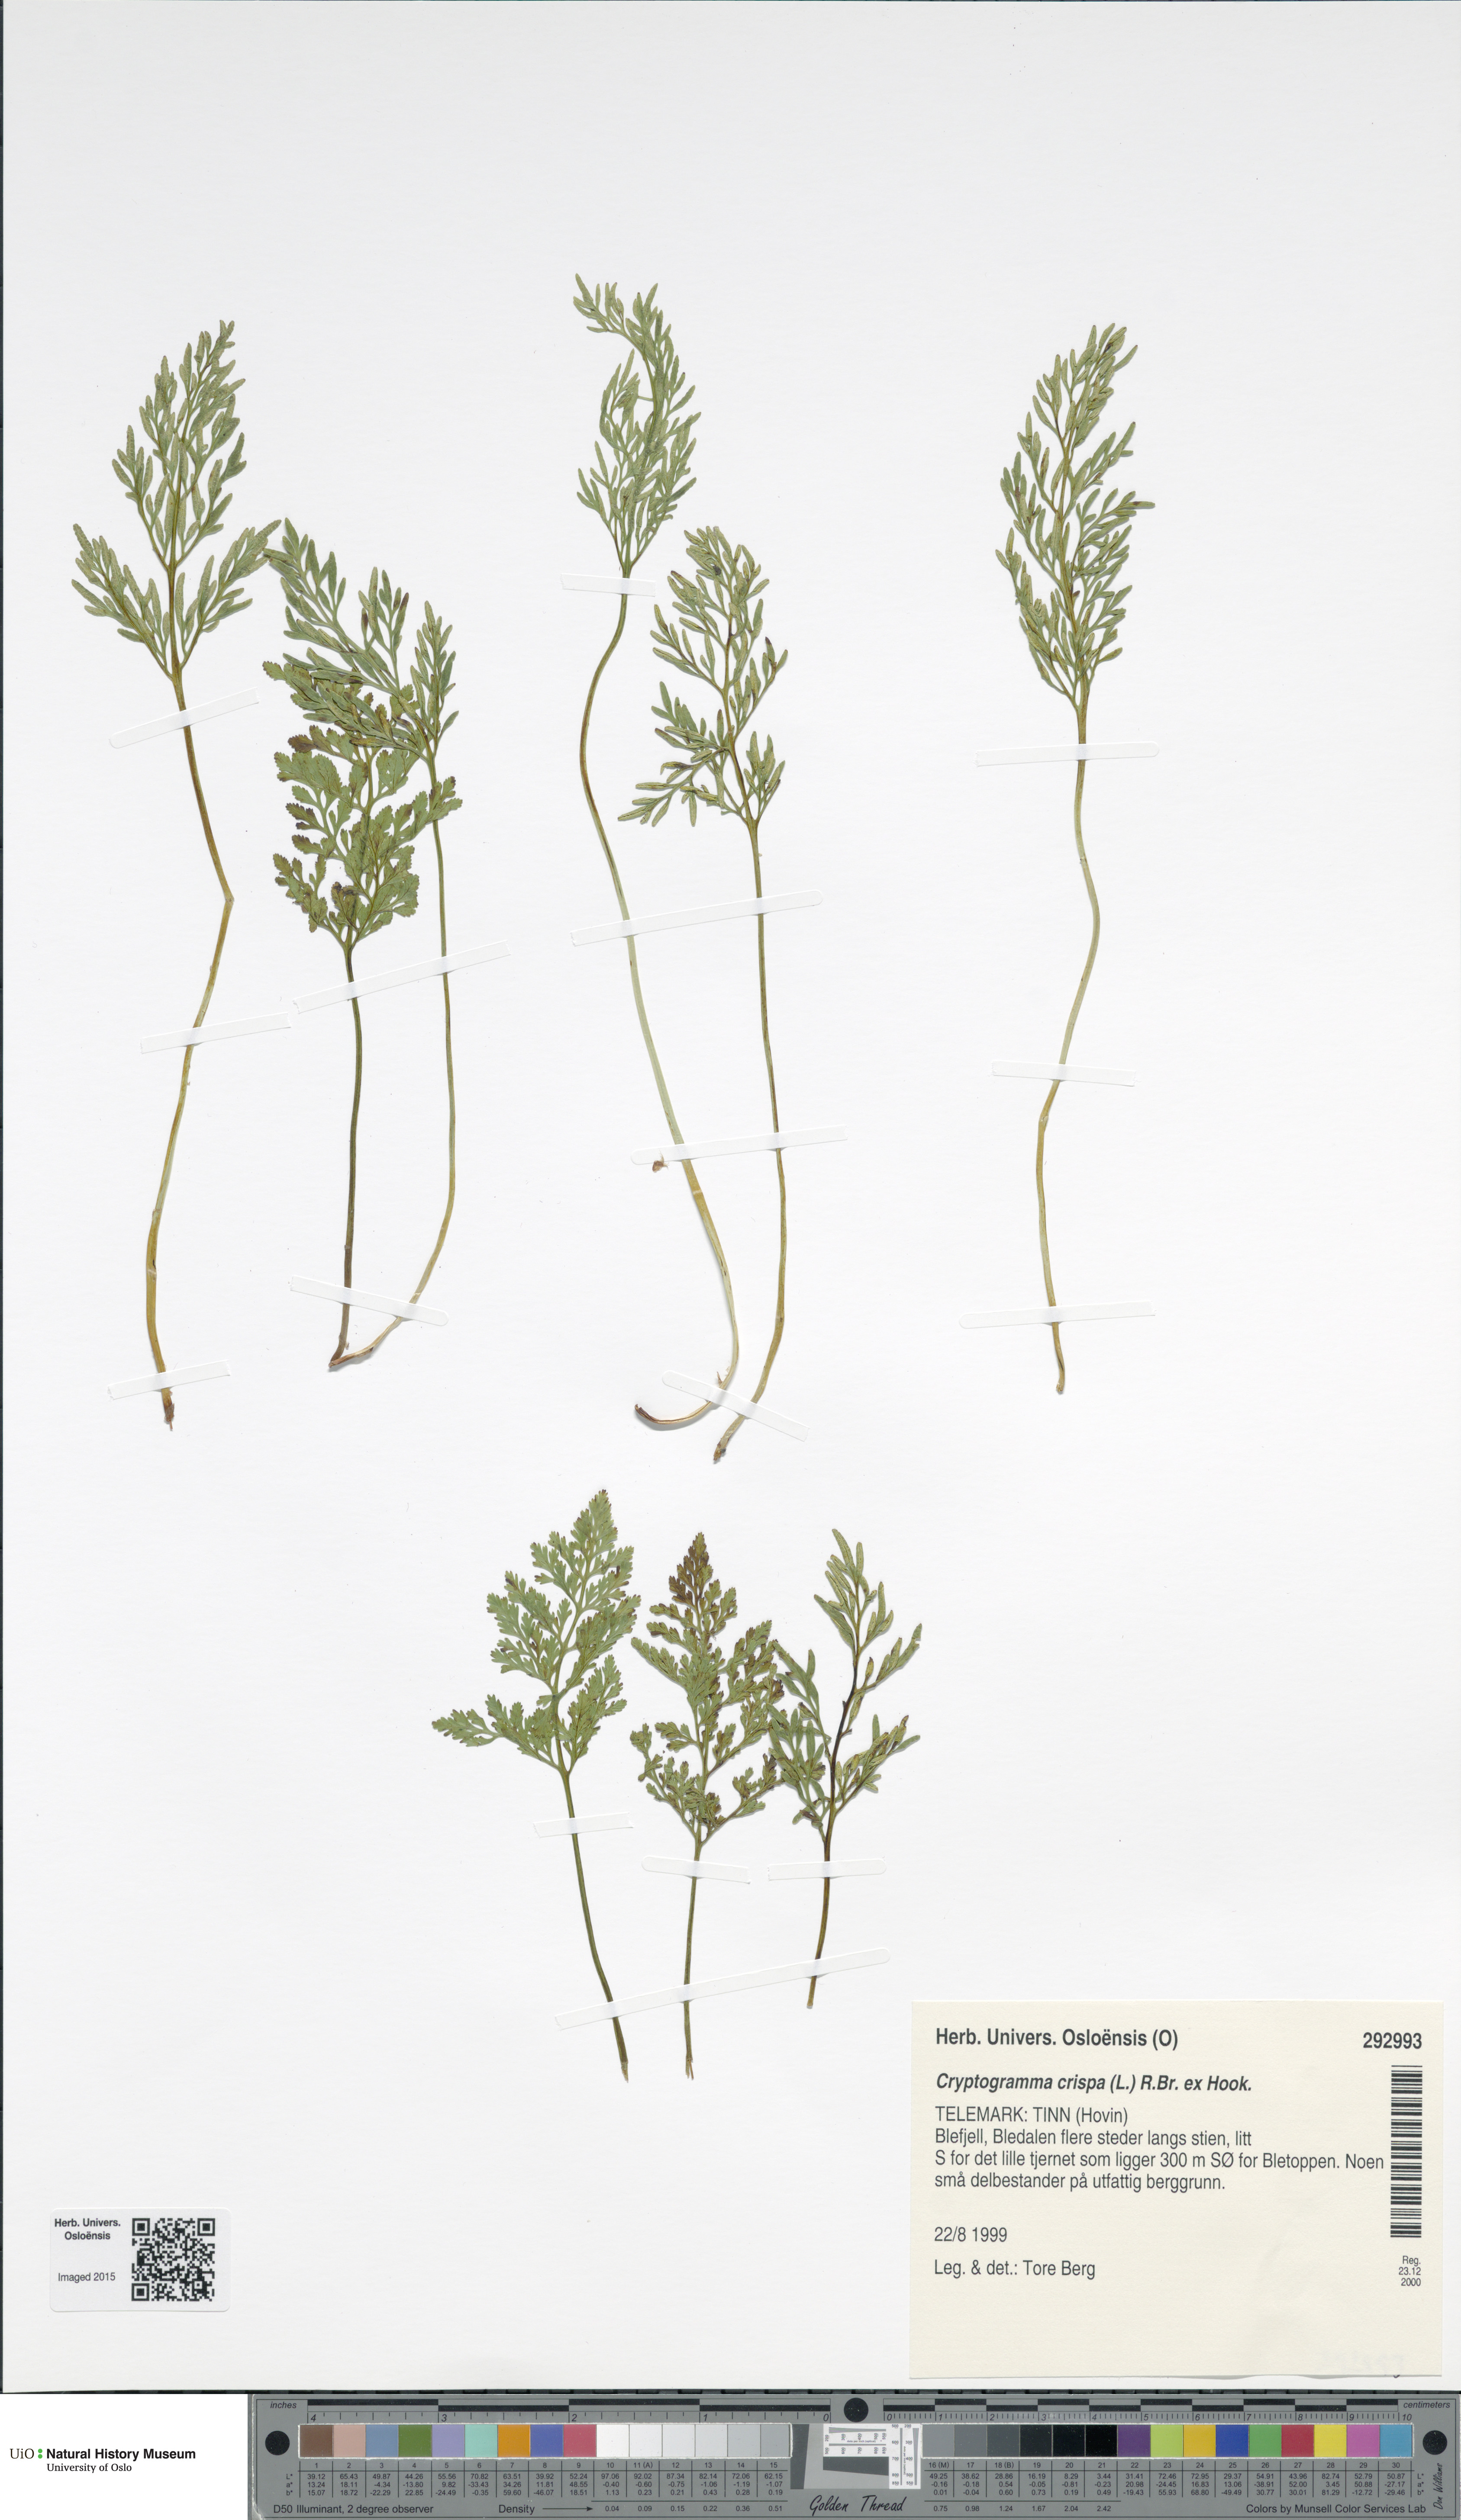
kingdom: Plantae
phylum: Tracheophyta
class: Polypodiopsida
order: Polypodiales
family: Pteridaceae
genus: Cryptogramma
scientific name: Cryptogramma crispa
